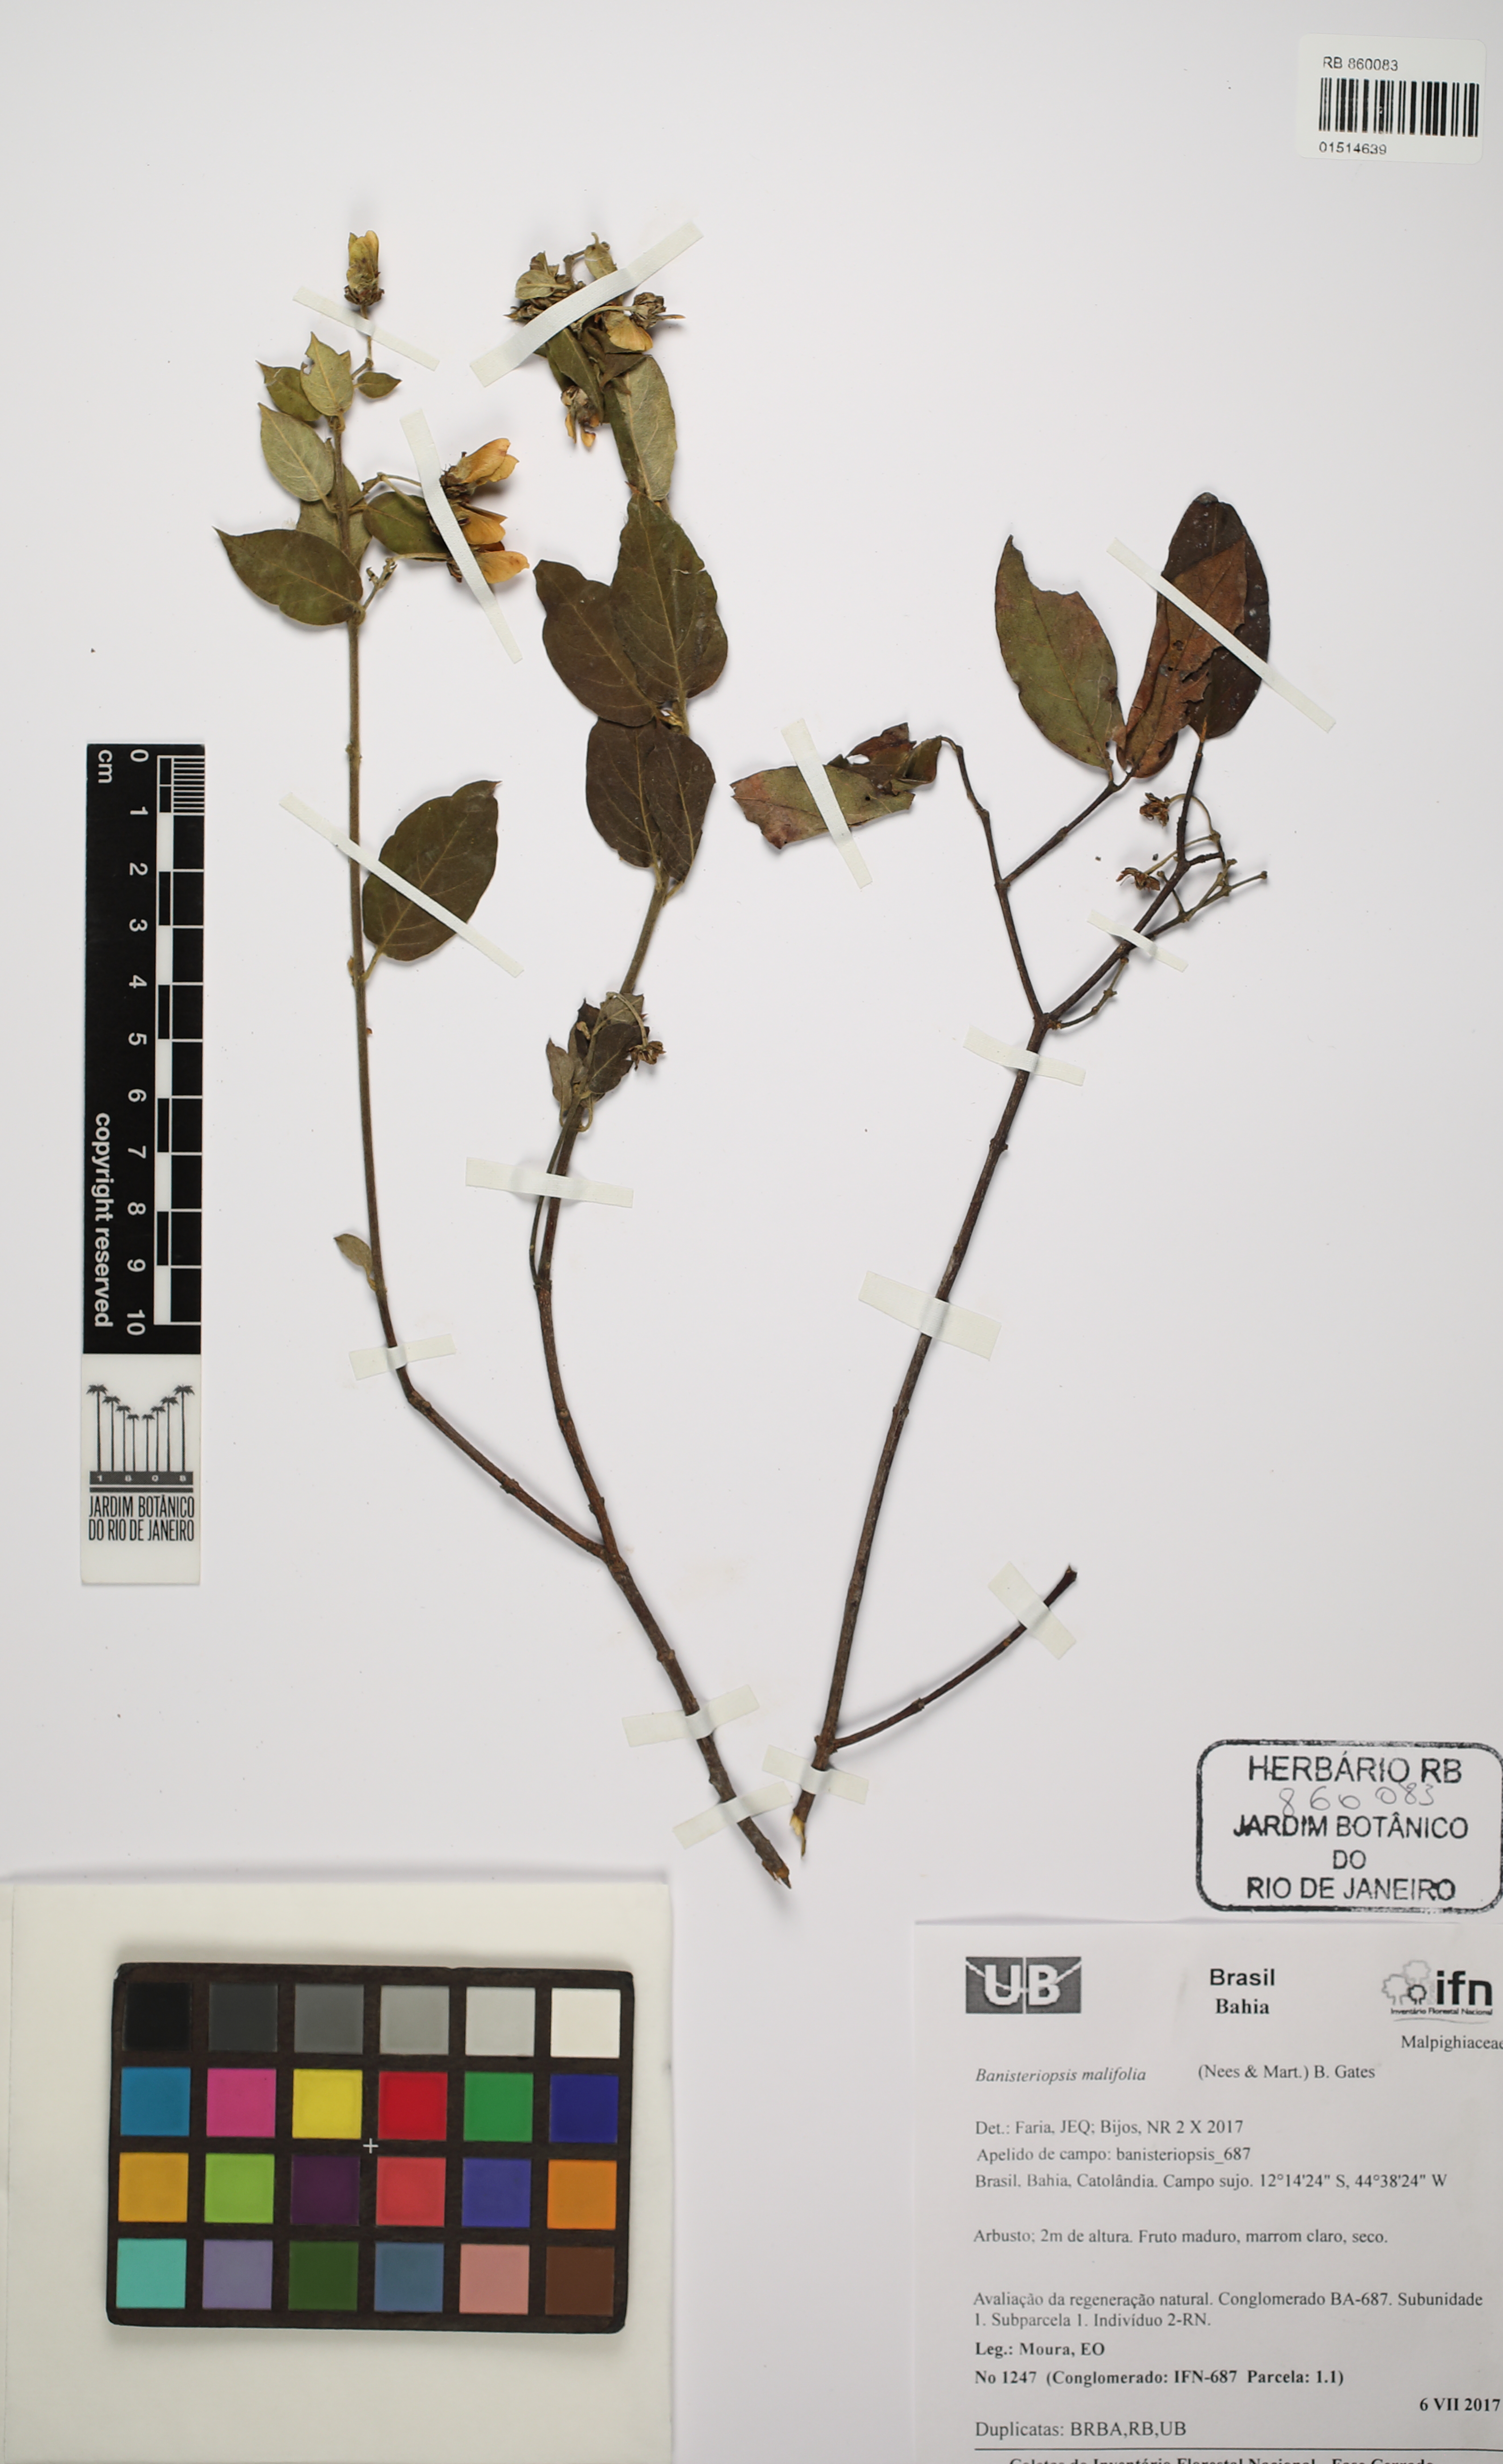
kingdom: Plantae
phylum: Tracheophyta
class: Magnoliopsida
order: Malpighiales
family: Malpighiaceae
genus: Banisteriopsis
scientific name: Banisteriopsis malifolia
